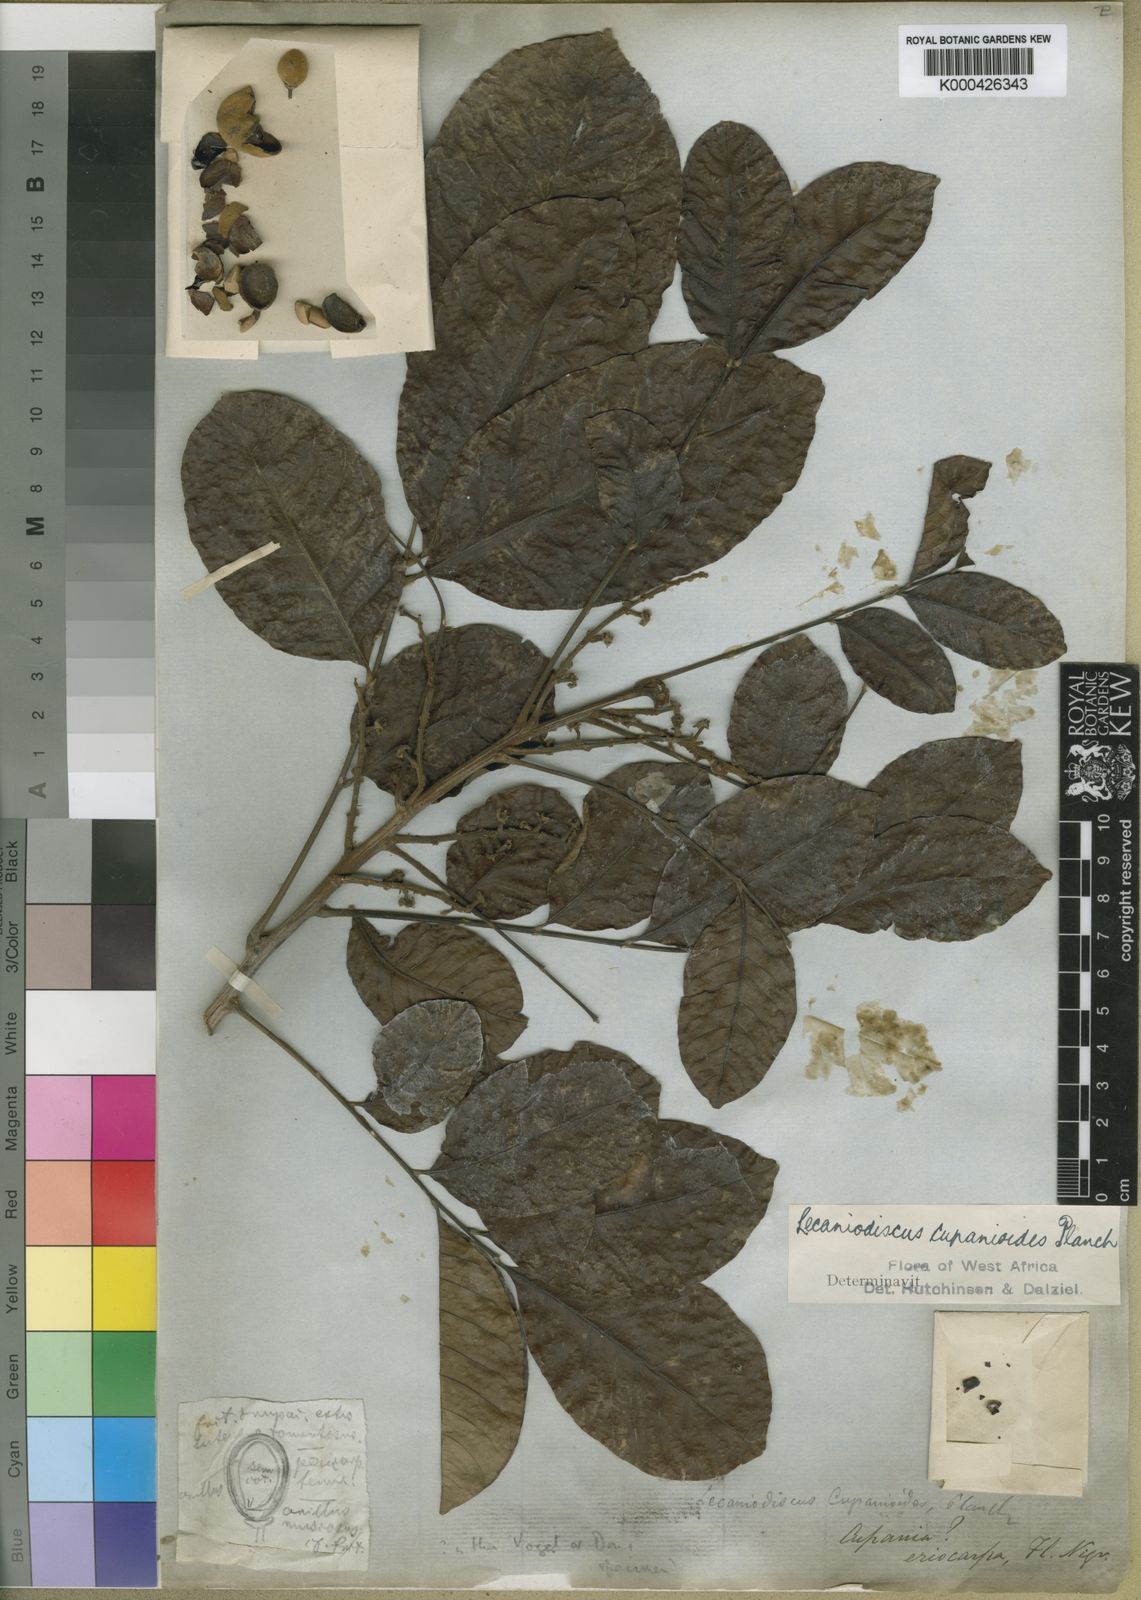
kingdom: Plantae
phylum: Tracheophyta
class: Magnoliopsida
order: Sapindales
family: Sapindaceae
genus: Lecaniodiscus
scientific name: Lecaniodiscus
